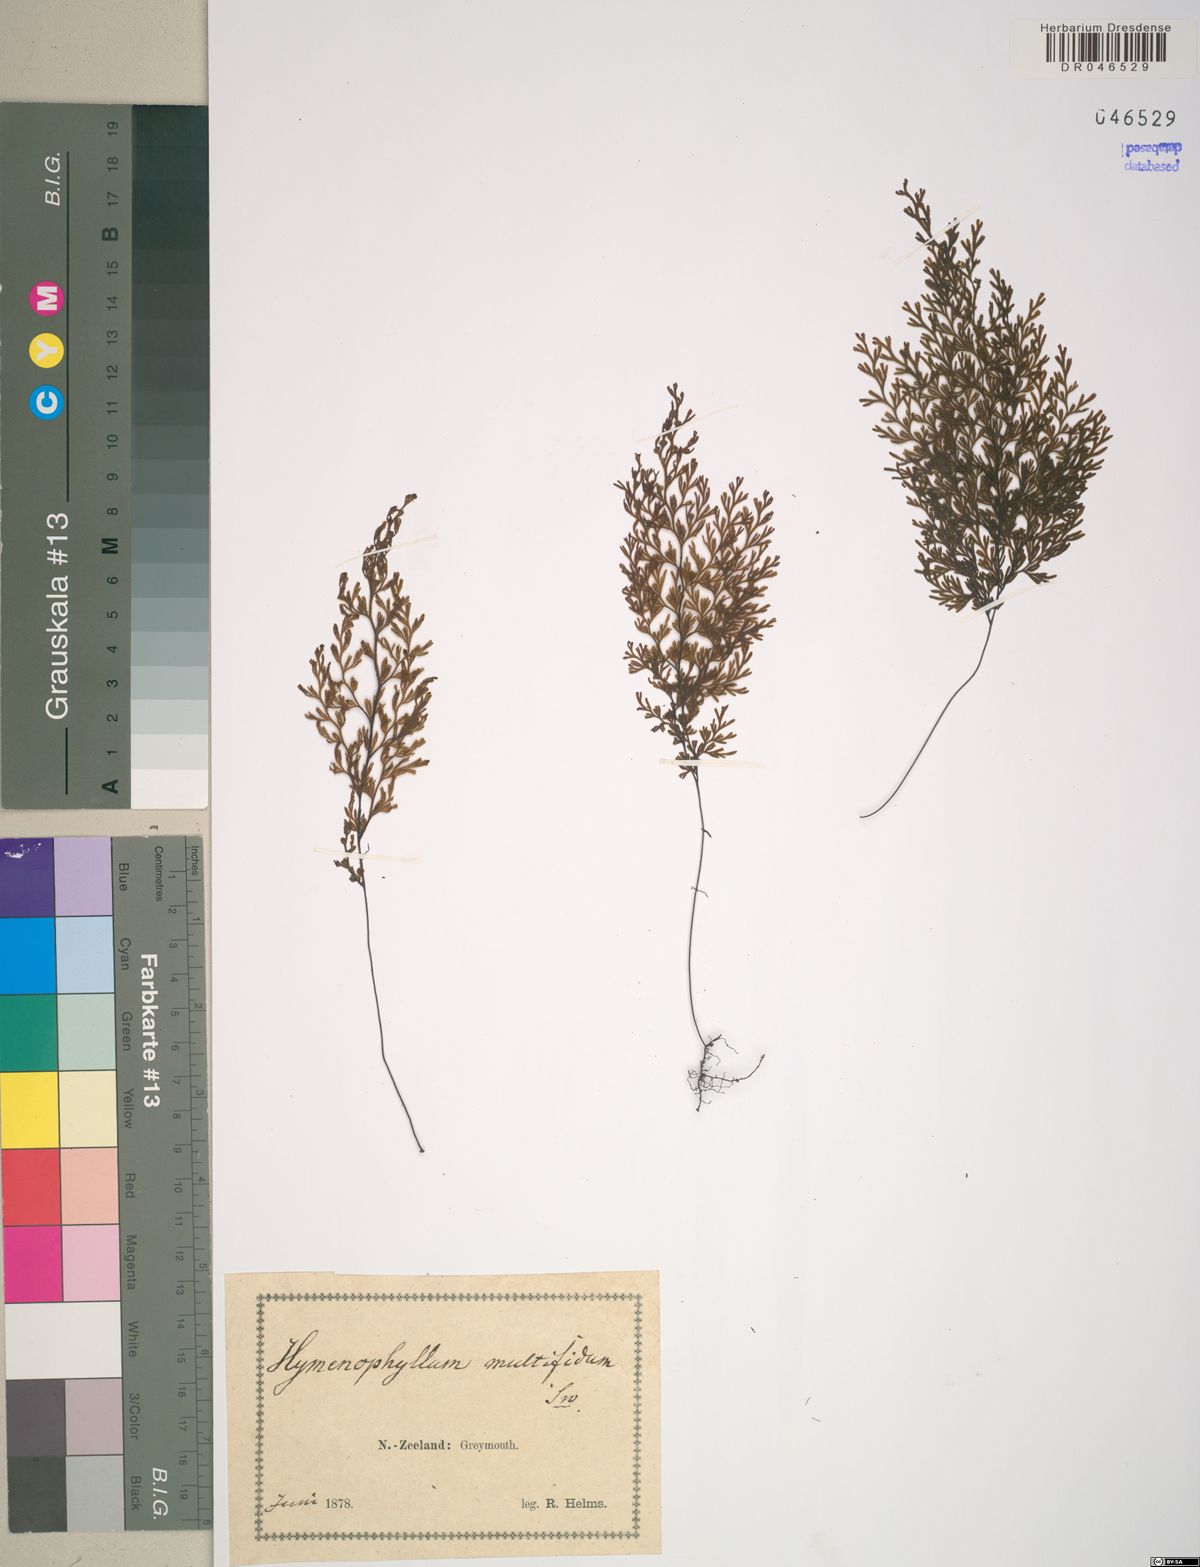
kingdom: Plantae
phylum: Tracheophyta
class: Polypodiopsida
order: Hymenophyllales
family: Hymenophyllaceae
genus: Hymenophyllum
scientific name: Hymenophyllum multifidum
